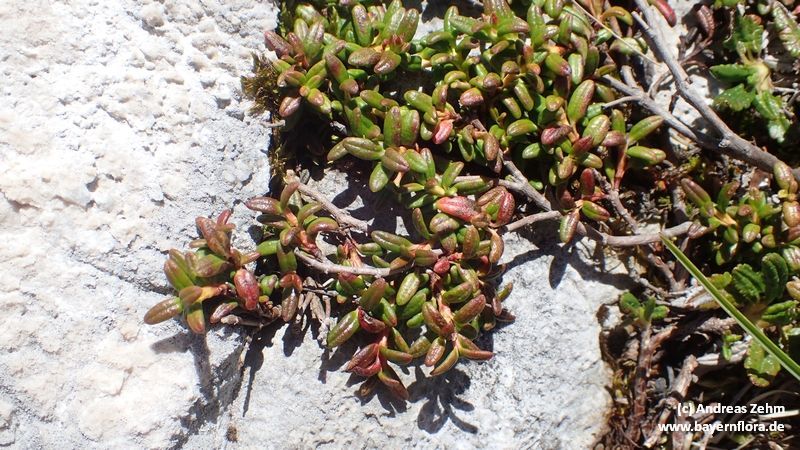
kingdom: Plantae
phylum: Tracheophyta
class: Magnoliopsida
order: Ericales
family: Ericaceae
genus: Kalmia
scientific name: Kalmia procumbens
